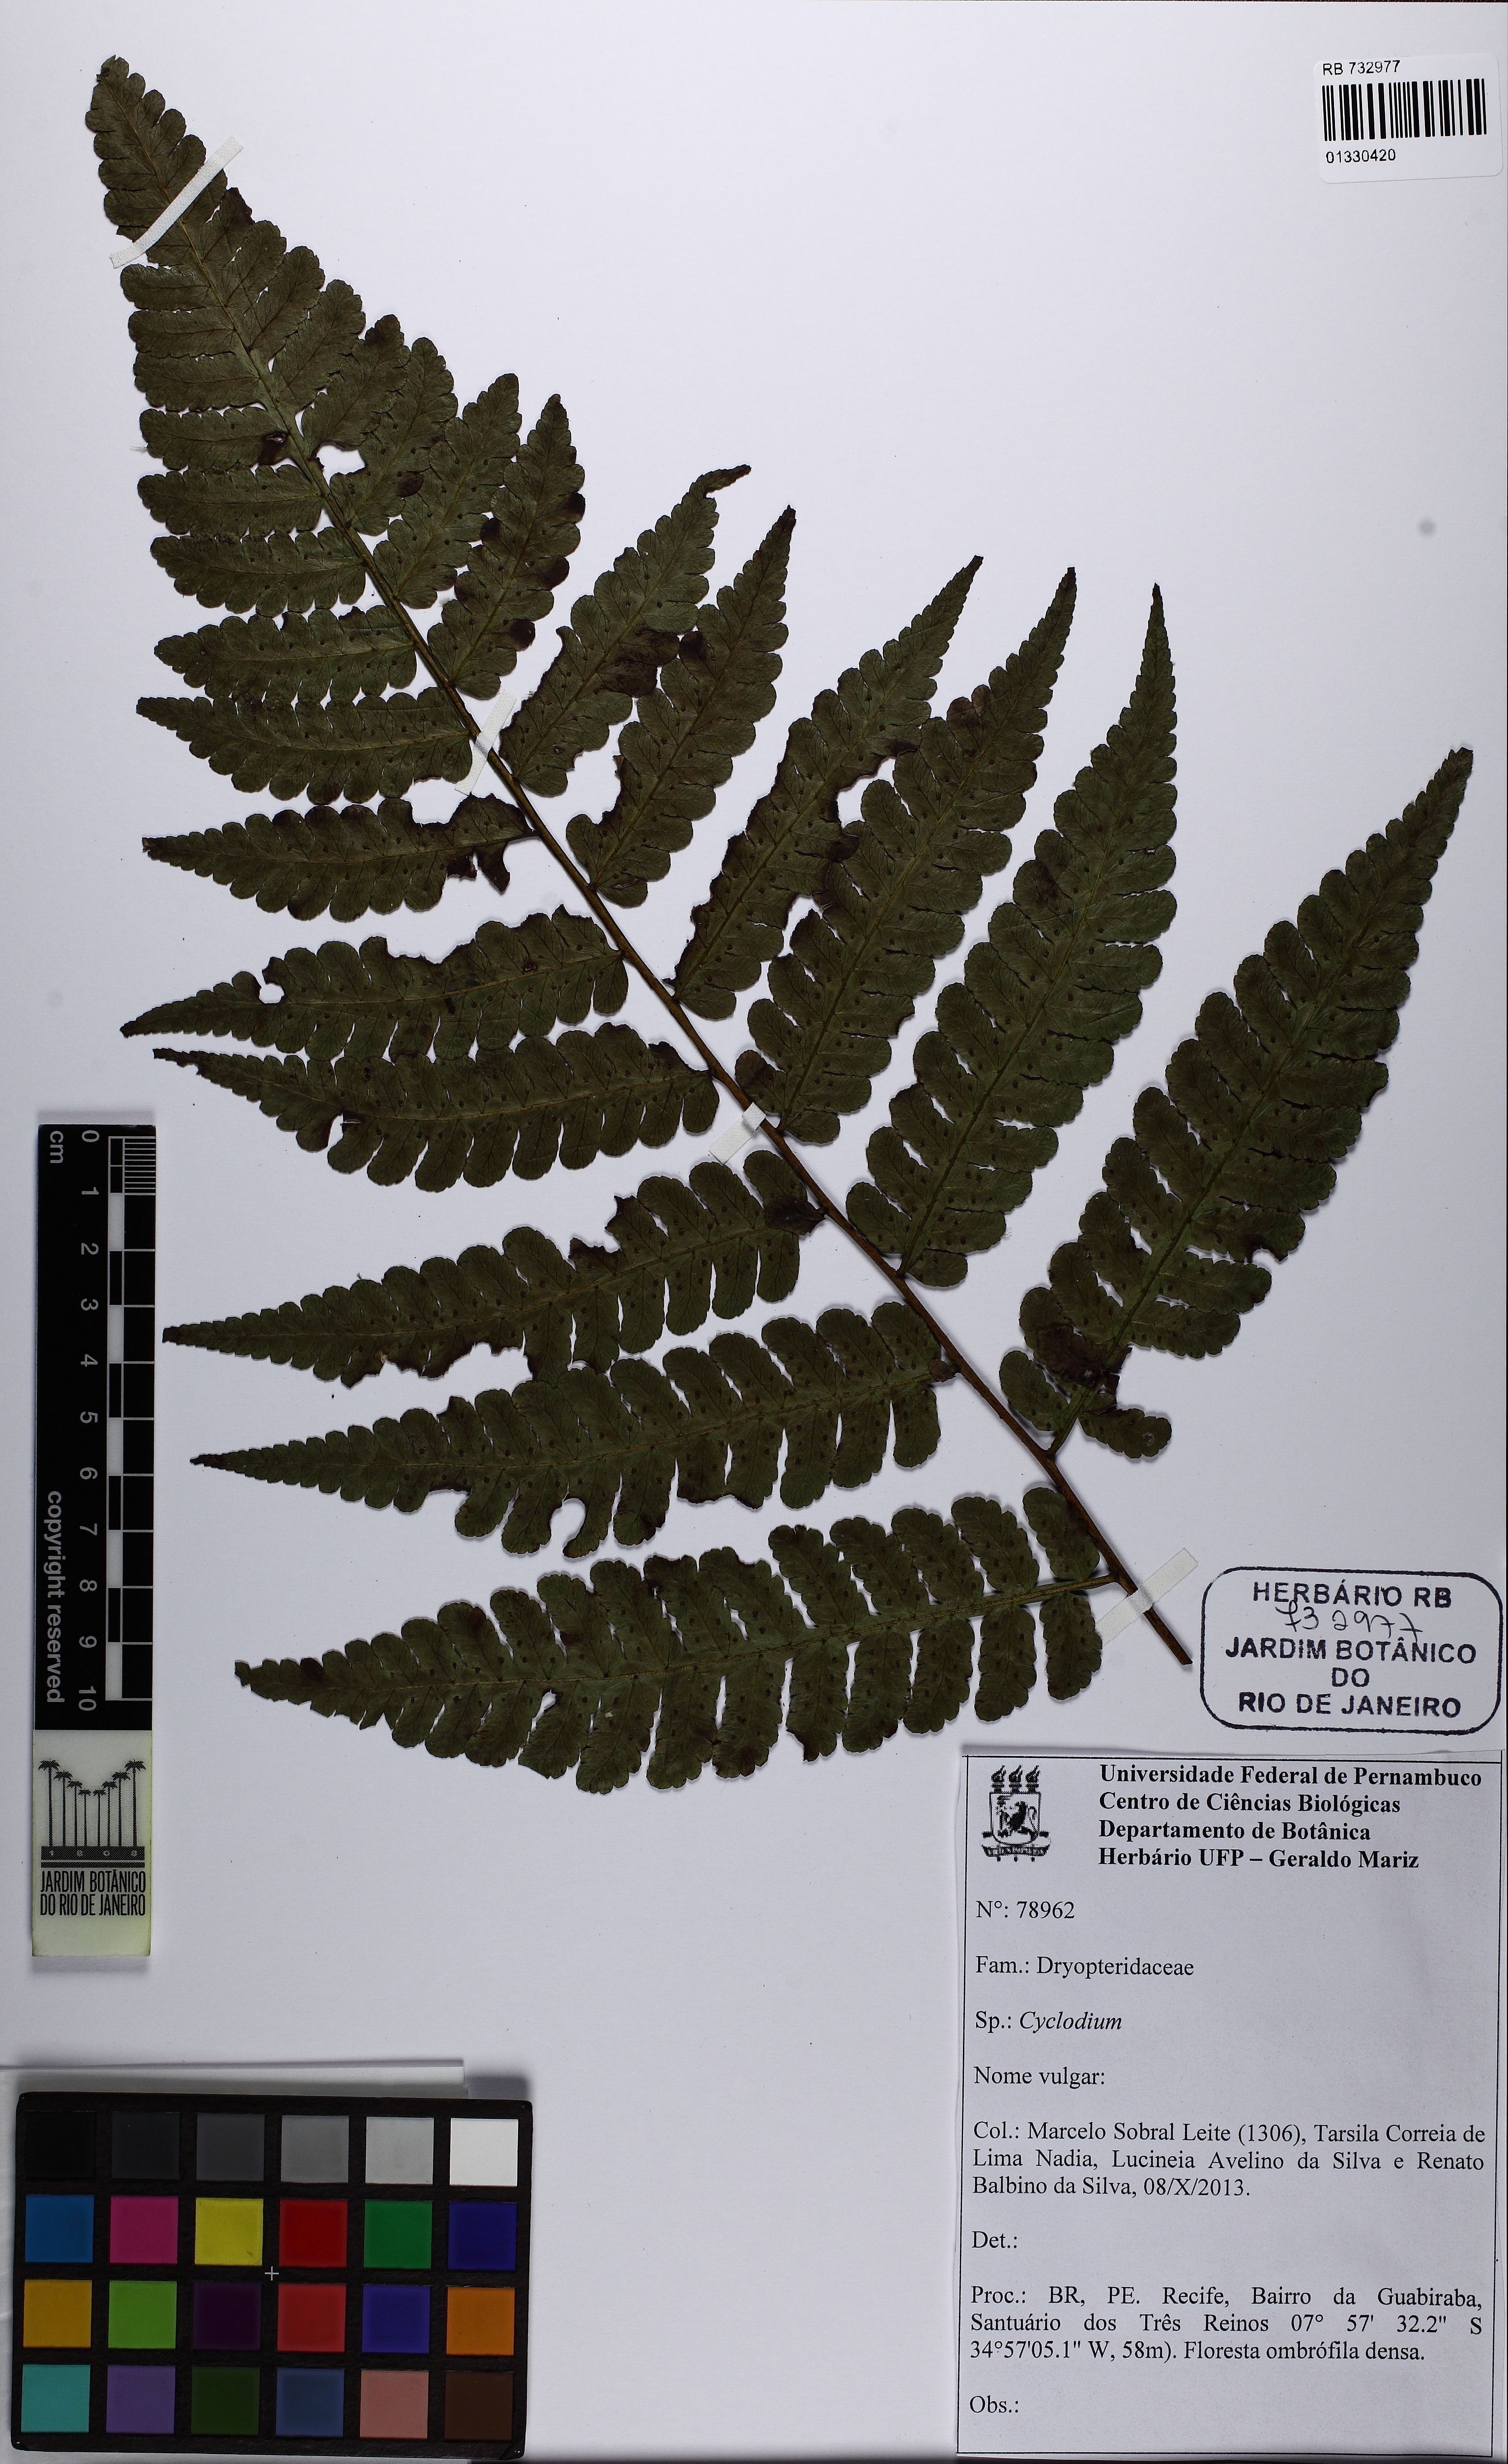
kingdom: Plantae
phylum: Tracheophyta
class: Polypodiopsida
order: Polypodiales
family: Dryopteridaceae
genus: Cyclodium
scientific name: Cyclodium
